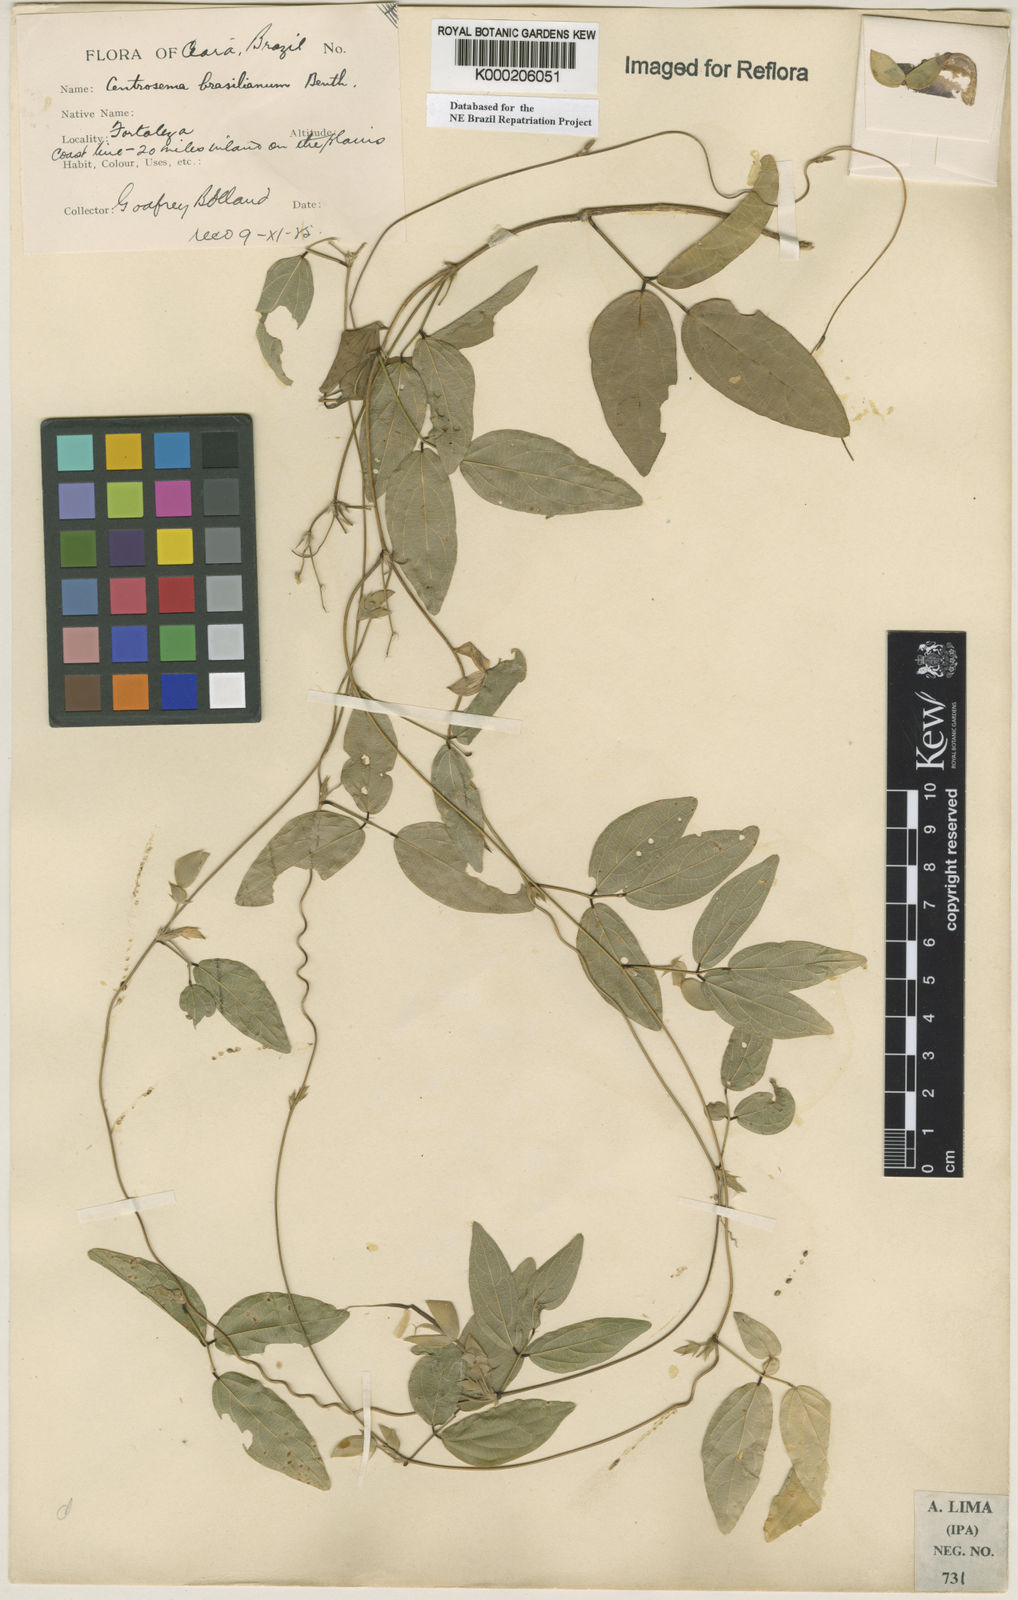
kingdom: Plantae
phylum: Tracheophyta
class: Magnoliopsida
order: Fabales
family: Fabaceae
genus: Centrosema
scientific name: Centrosema brasilianum
